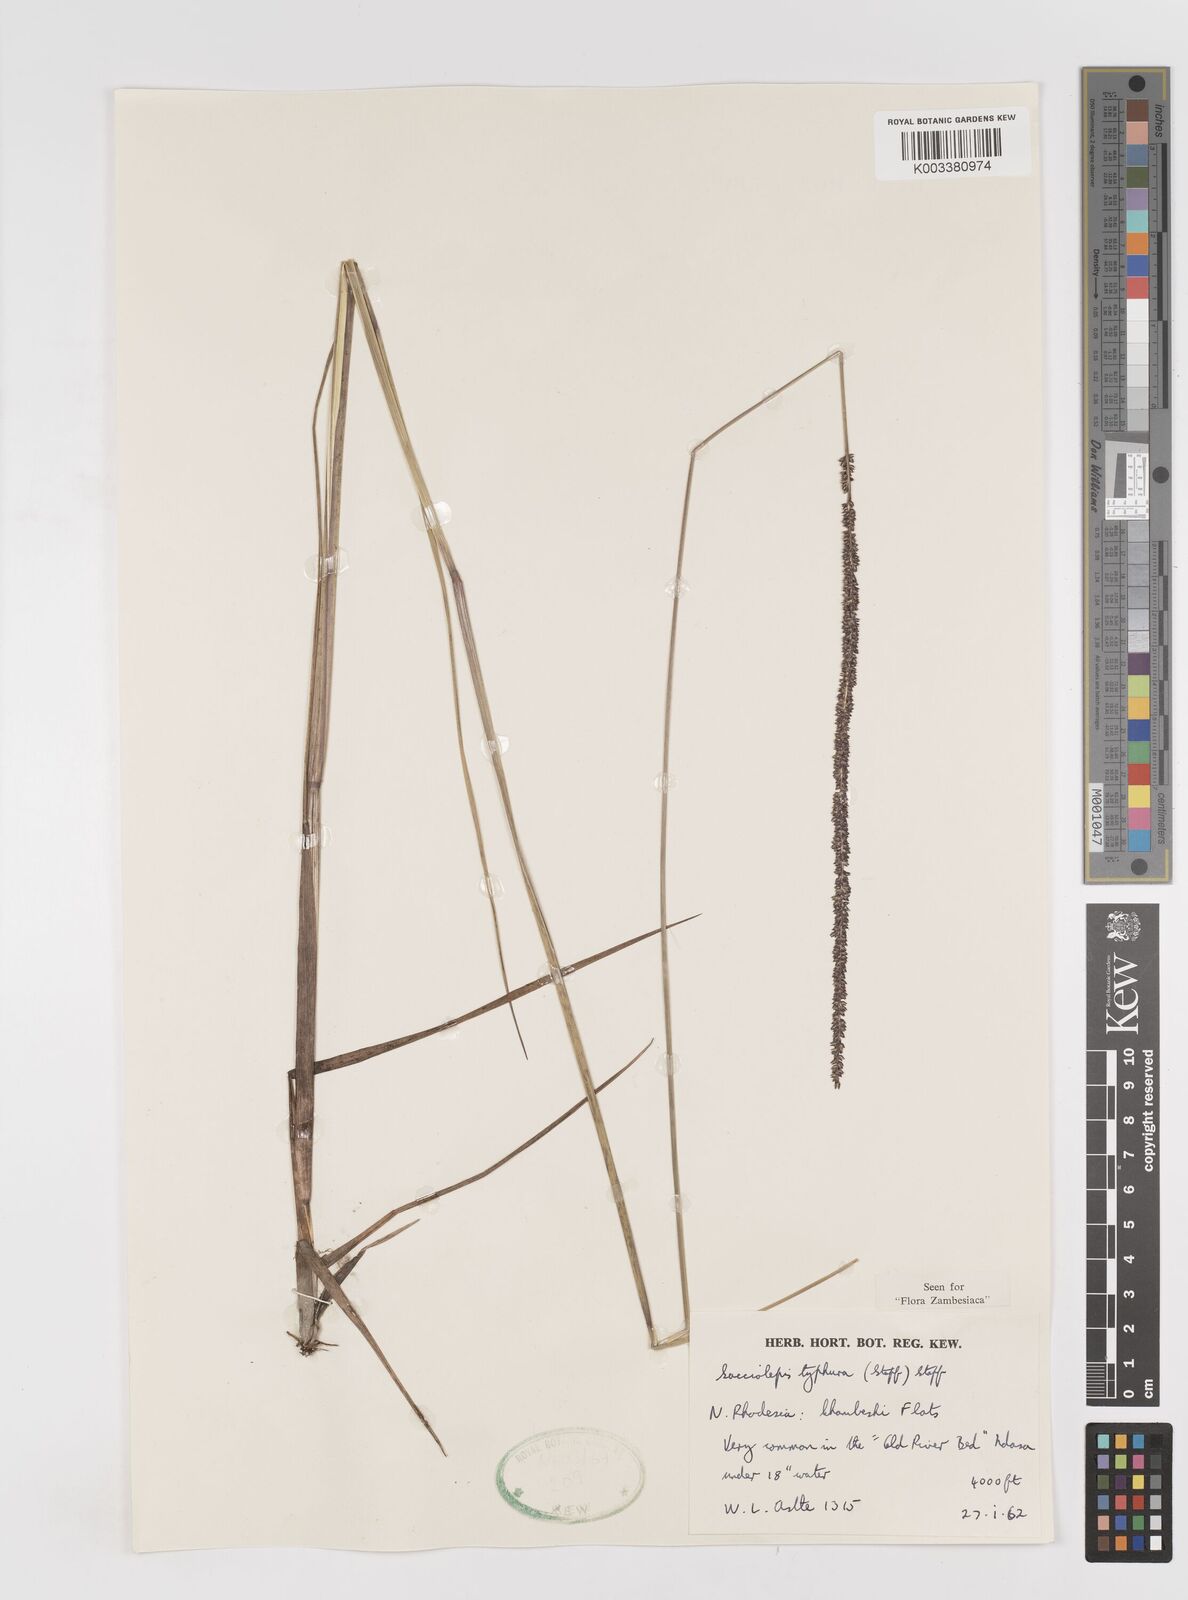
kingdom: Plantae
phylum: Tracheophyta
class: Liliopsida
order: Poales
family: Poaceae
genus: Sacciolepis
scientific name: Sacciolepis typhura
